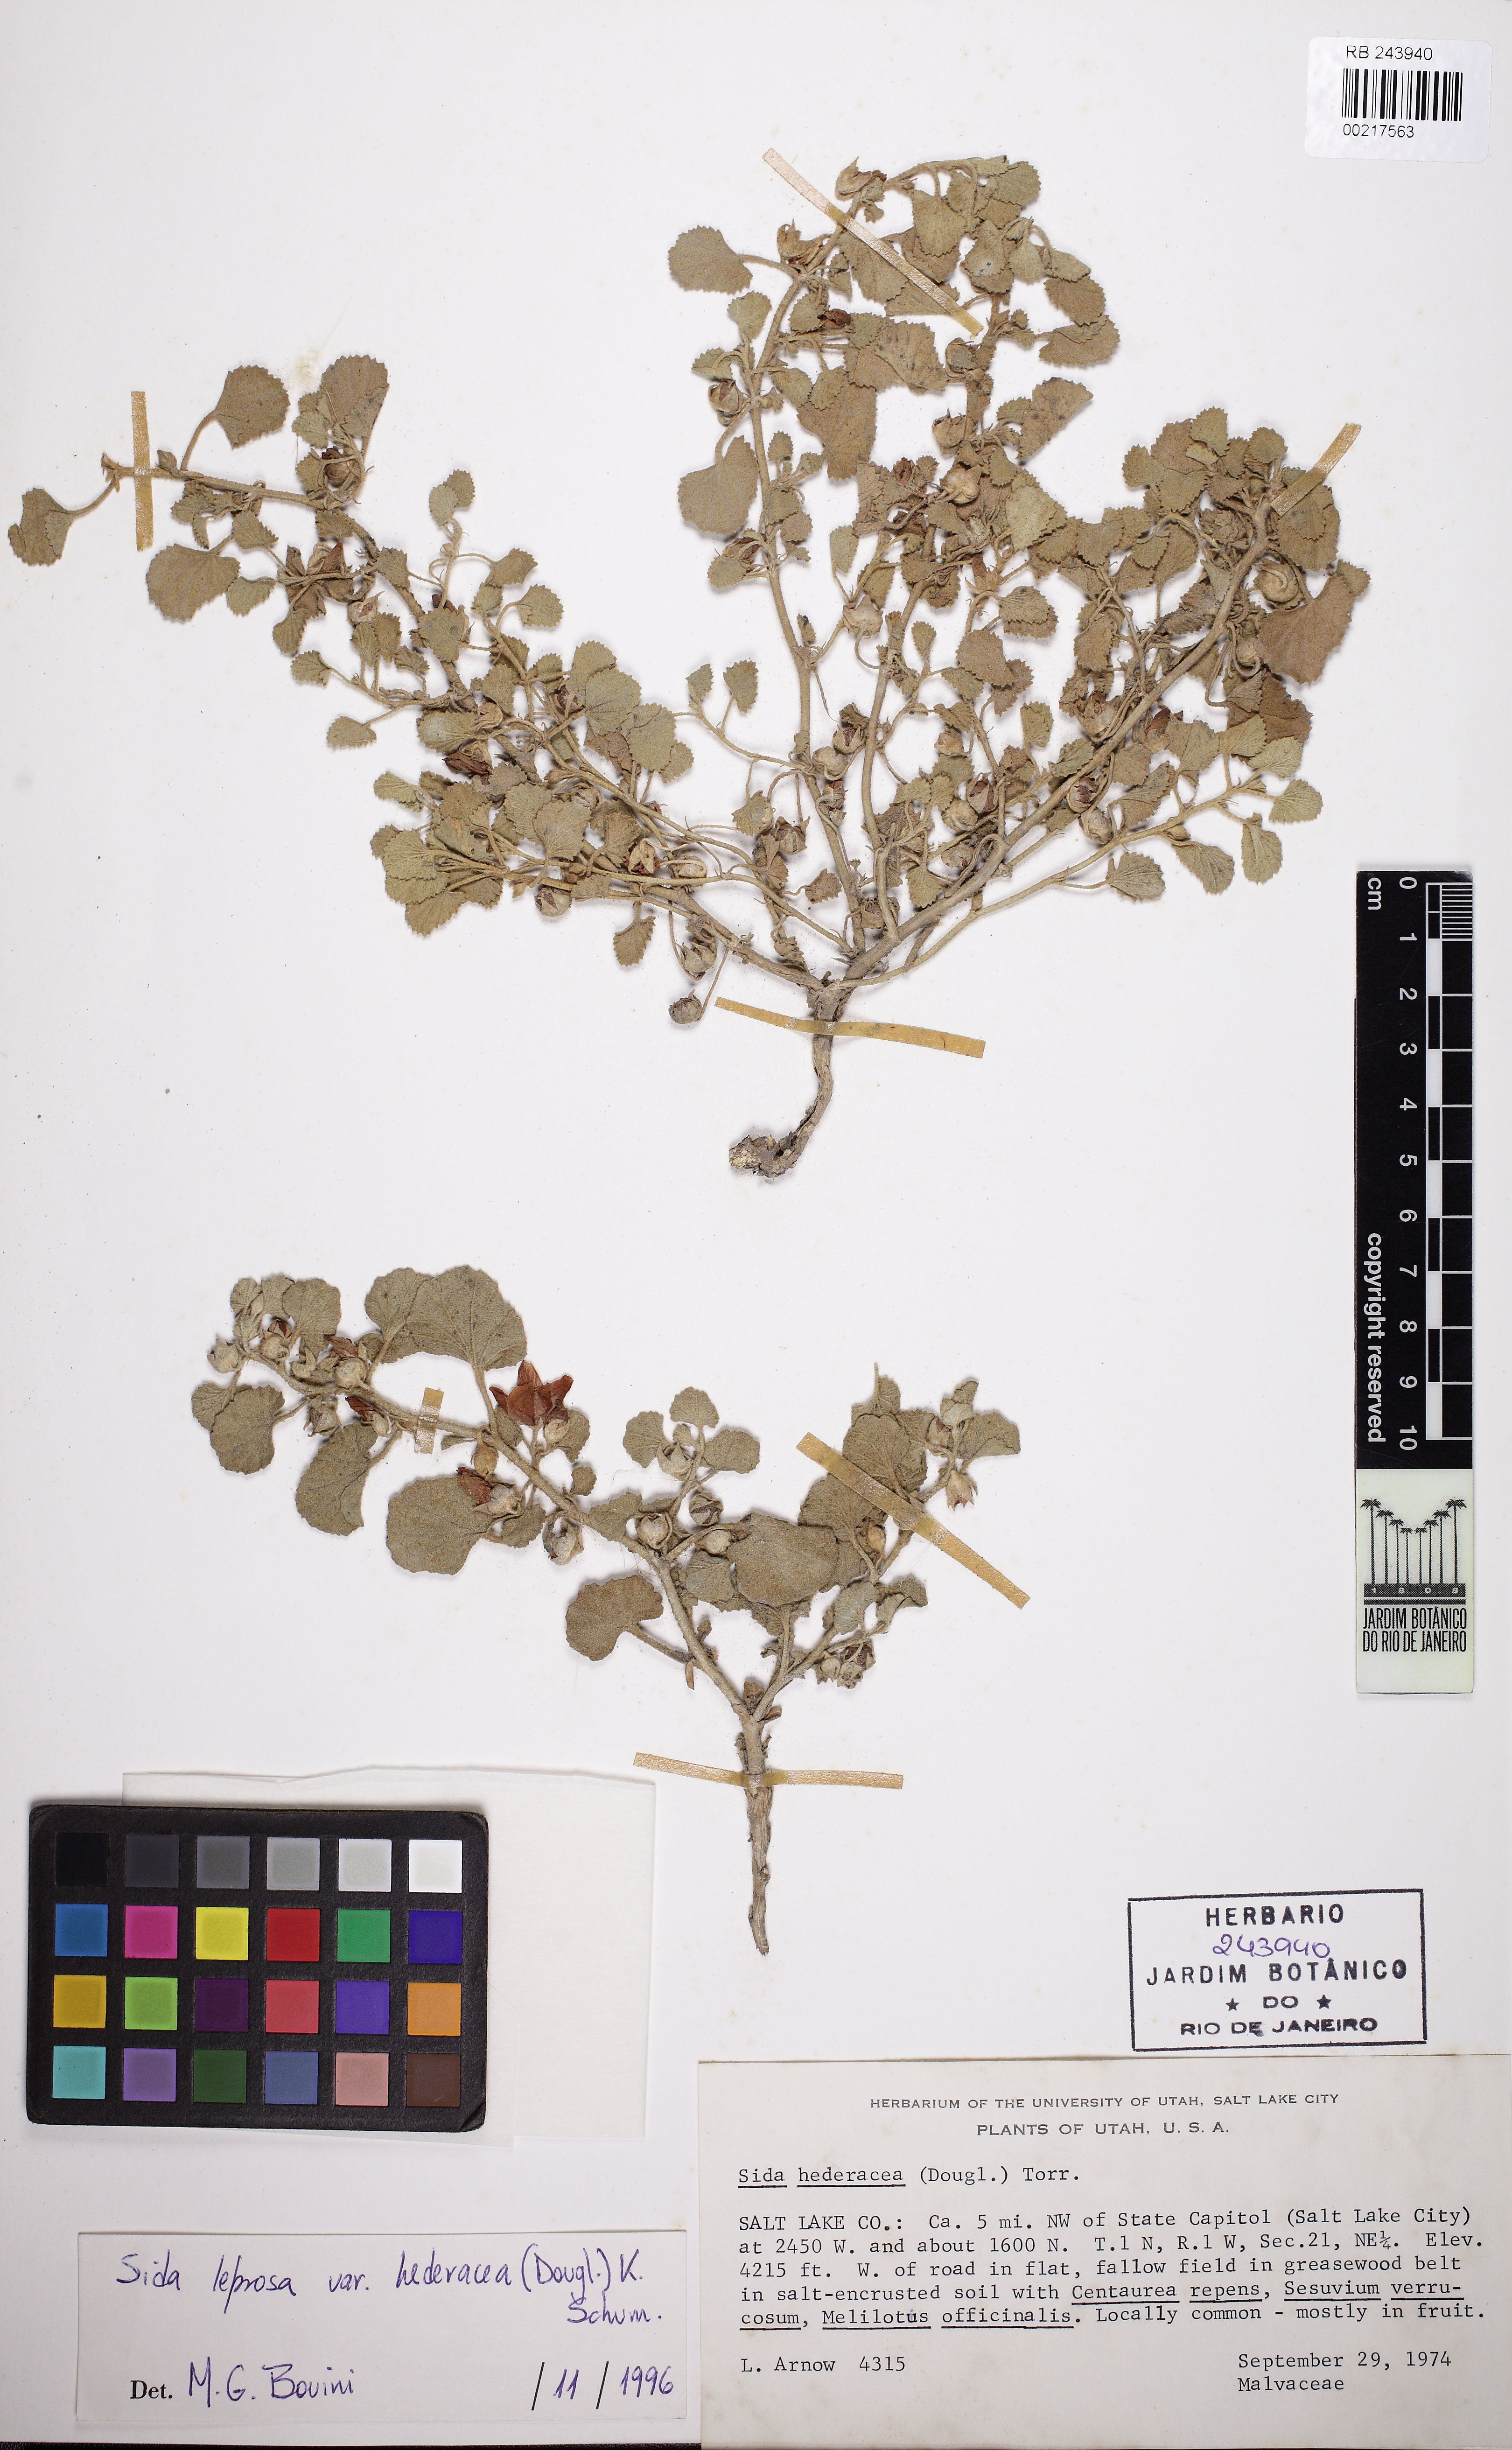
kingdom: Plantae
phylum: Tracheophyta
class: Magnoliopsida
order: Malvales
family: Malvaceae
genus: Malvella
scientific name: Malvella leprosa
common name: Alkali-mallow
